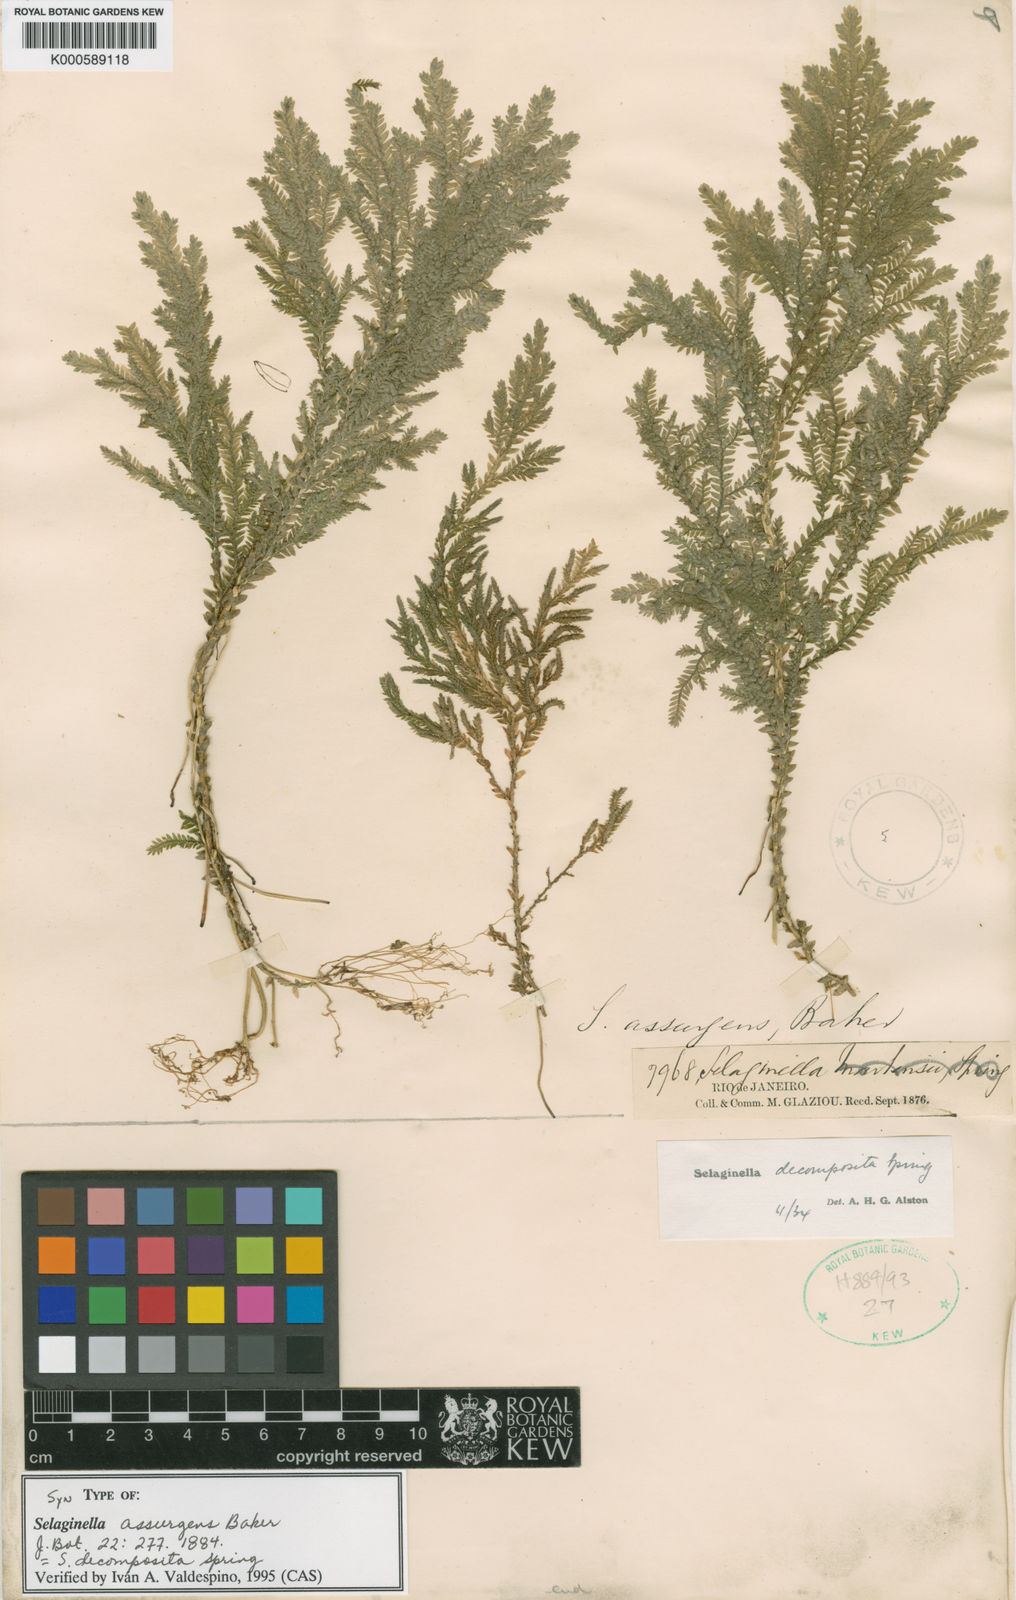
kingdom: Plantae
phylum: Tracheophyta
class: Lycopodiopsida
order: Selaginellales
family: Selaginellaceae
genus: Selaginella
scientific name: Selaginella decomposita
